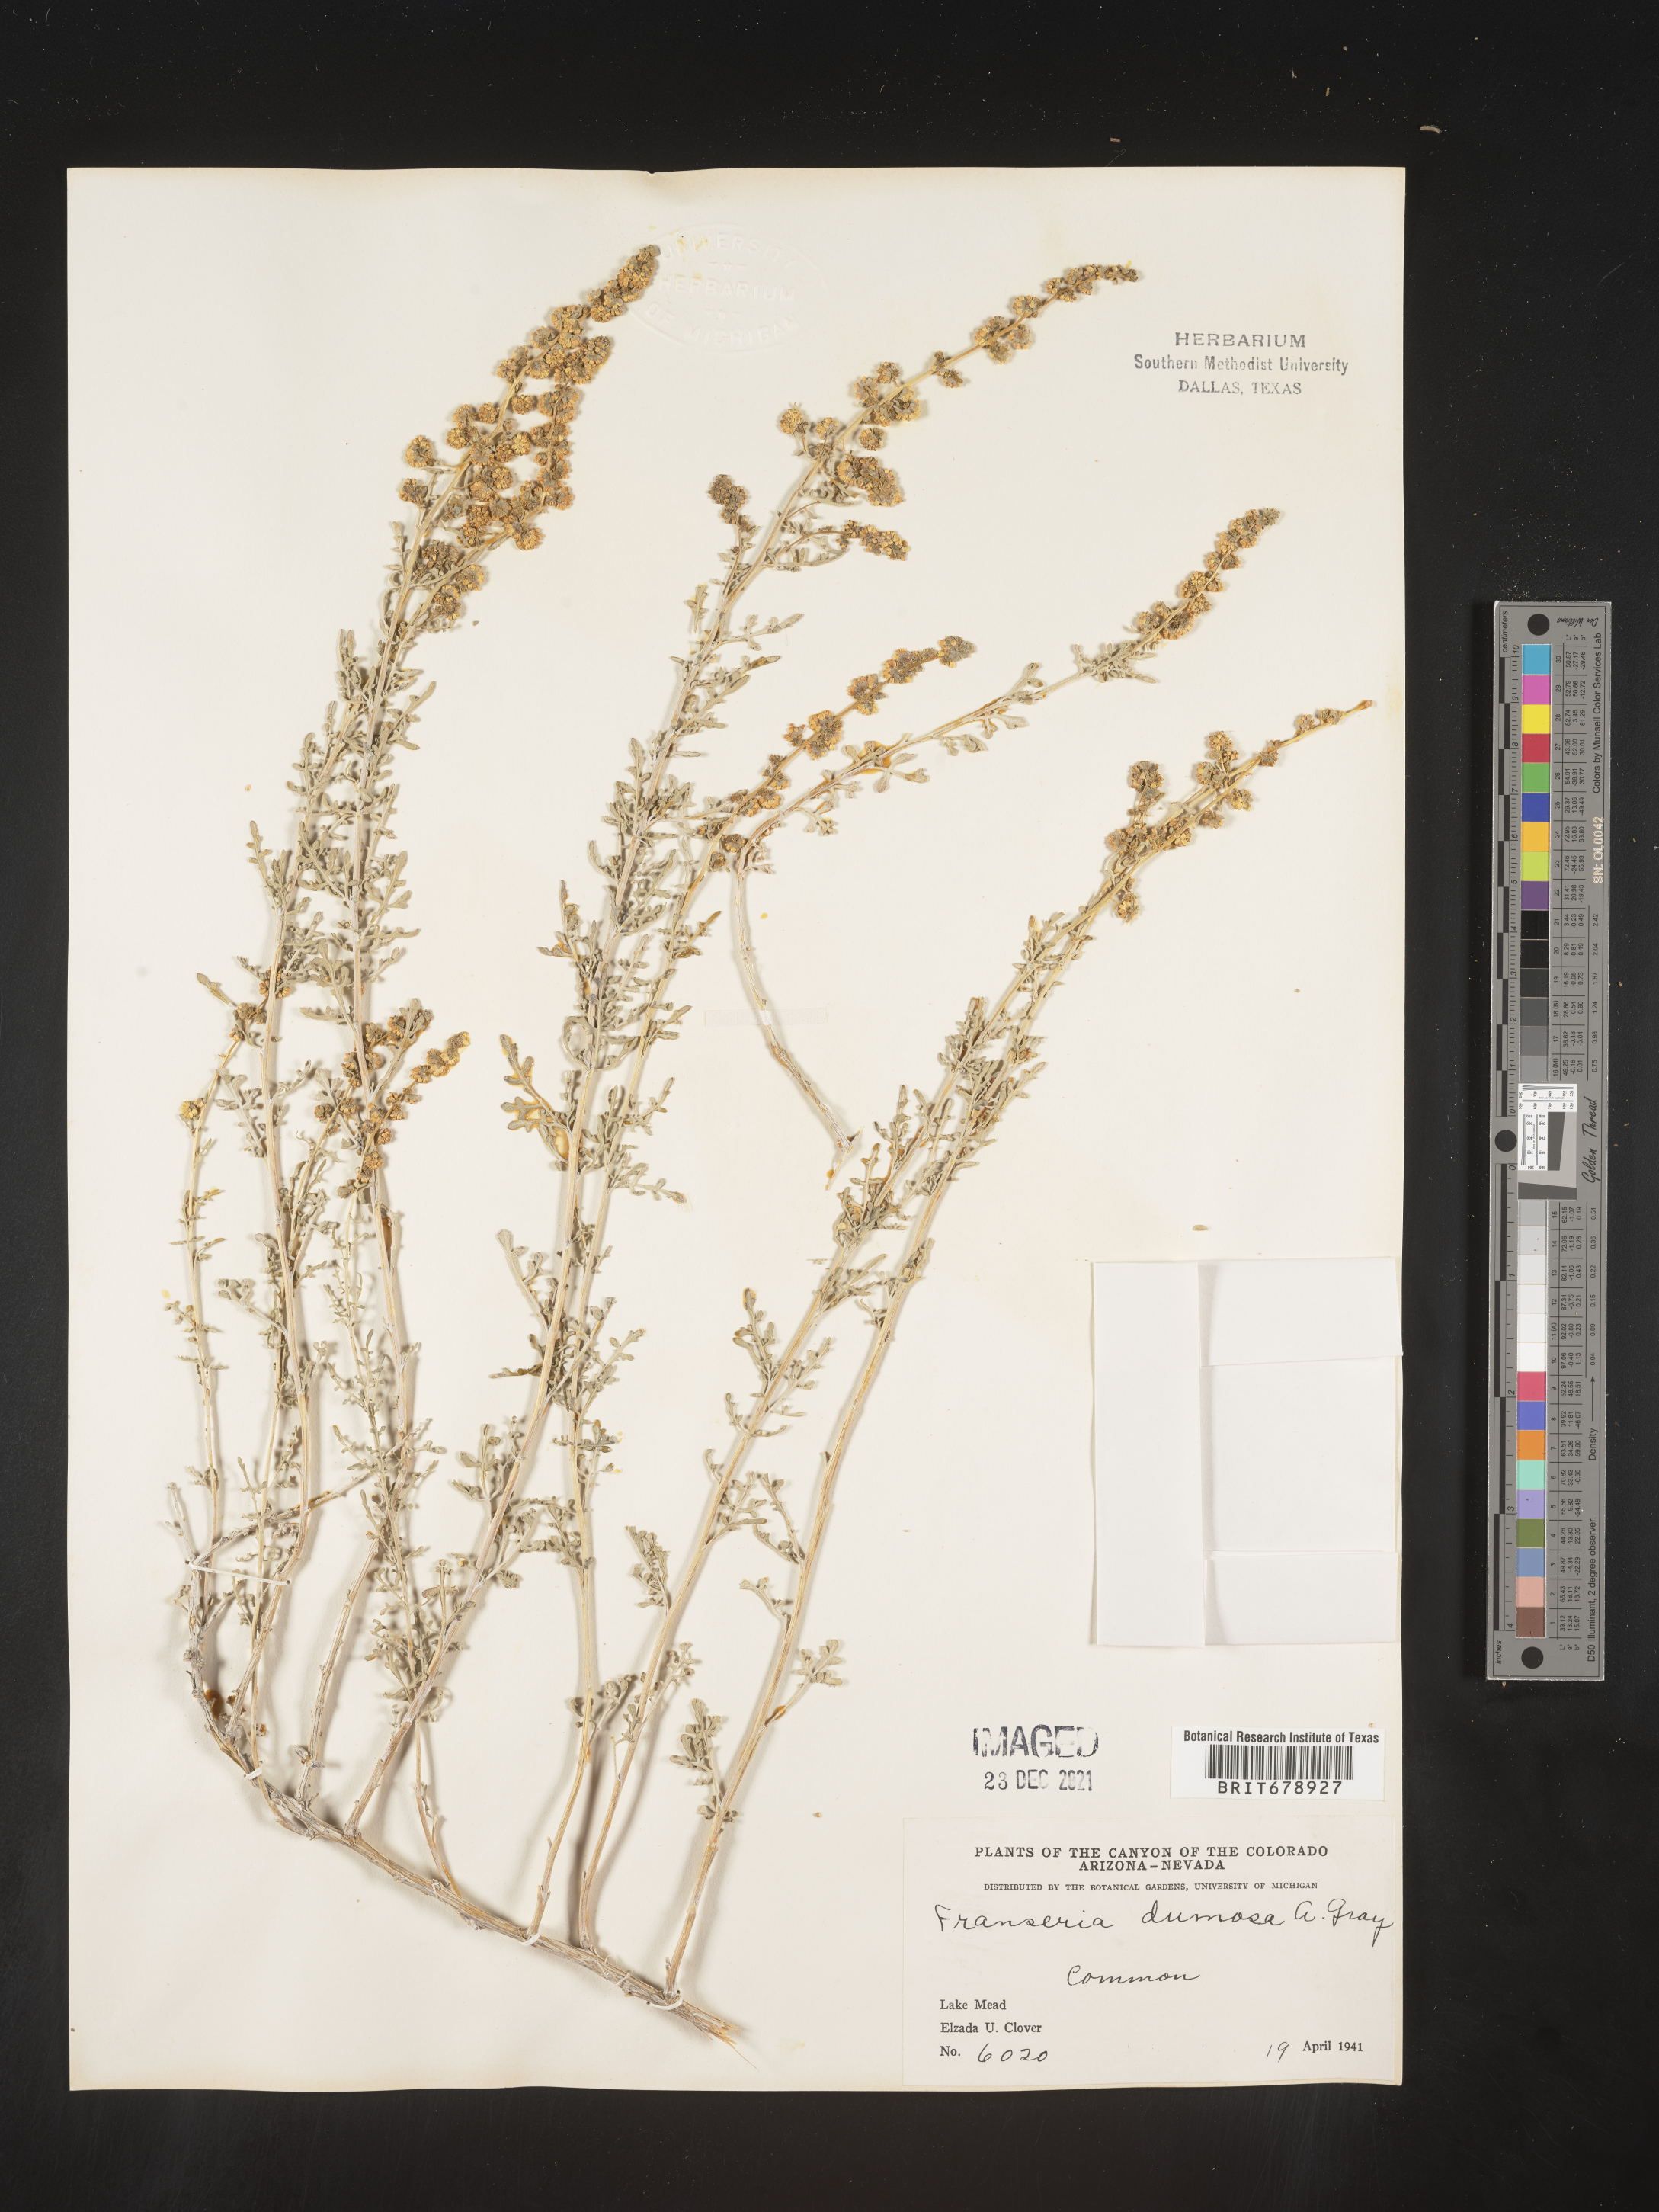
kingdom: Plantae
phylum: Tracheophyta
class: Magnoliopsida
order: Asterales
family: Asteraceae
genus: Ambrosia
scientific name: Ambrosia dumosa
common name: Bur-sage
